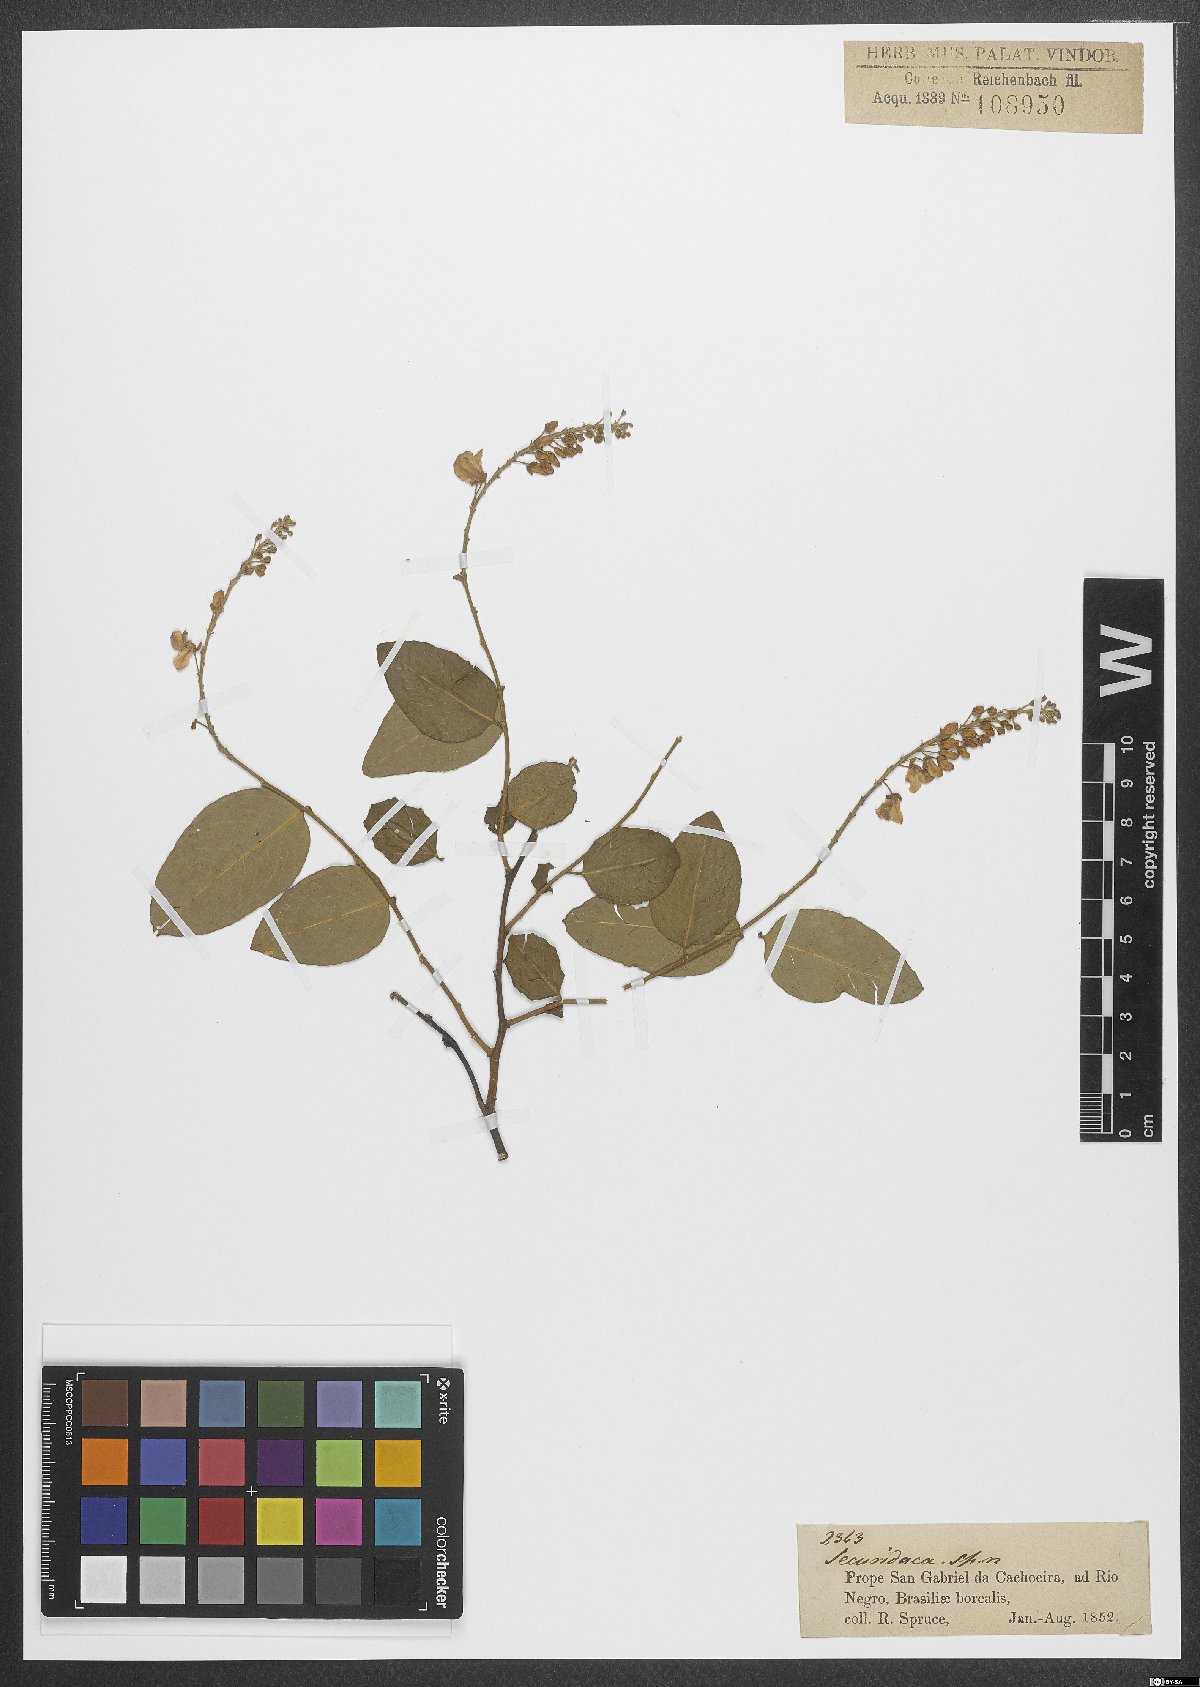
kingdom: Plantae
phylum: Tracheophyta
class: Magnoliopsida
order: Fabales
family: Polygalaceae
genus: Securidaca
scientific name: Securidaca
